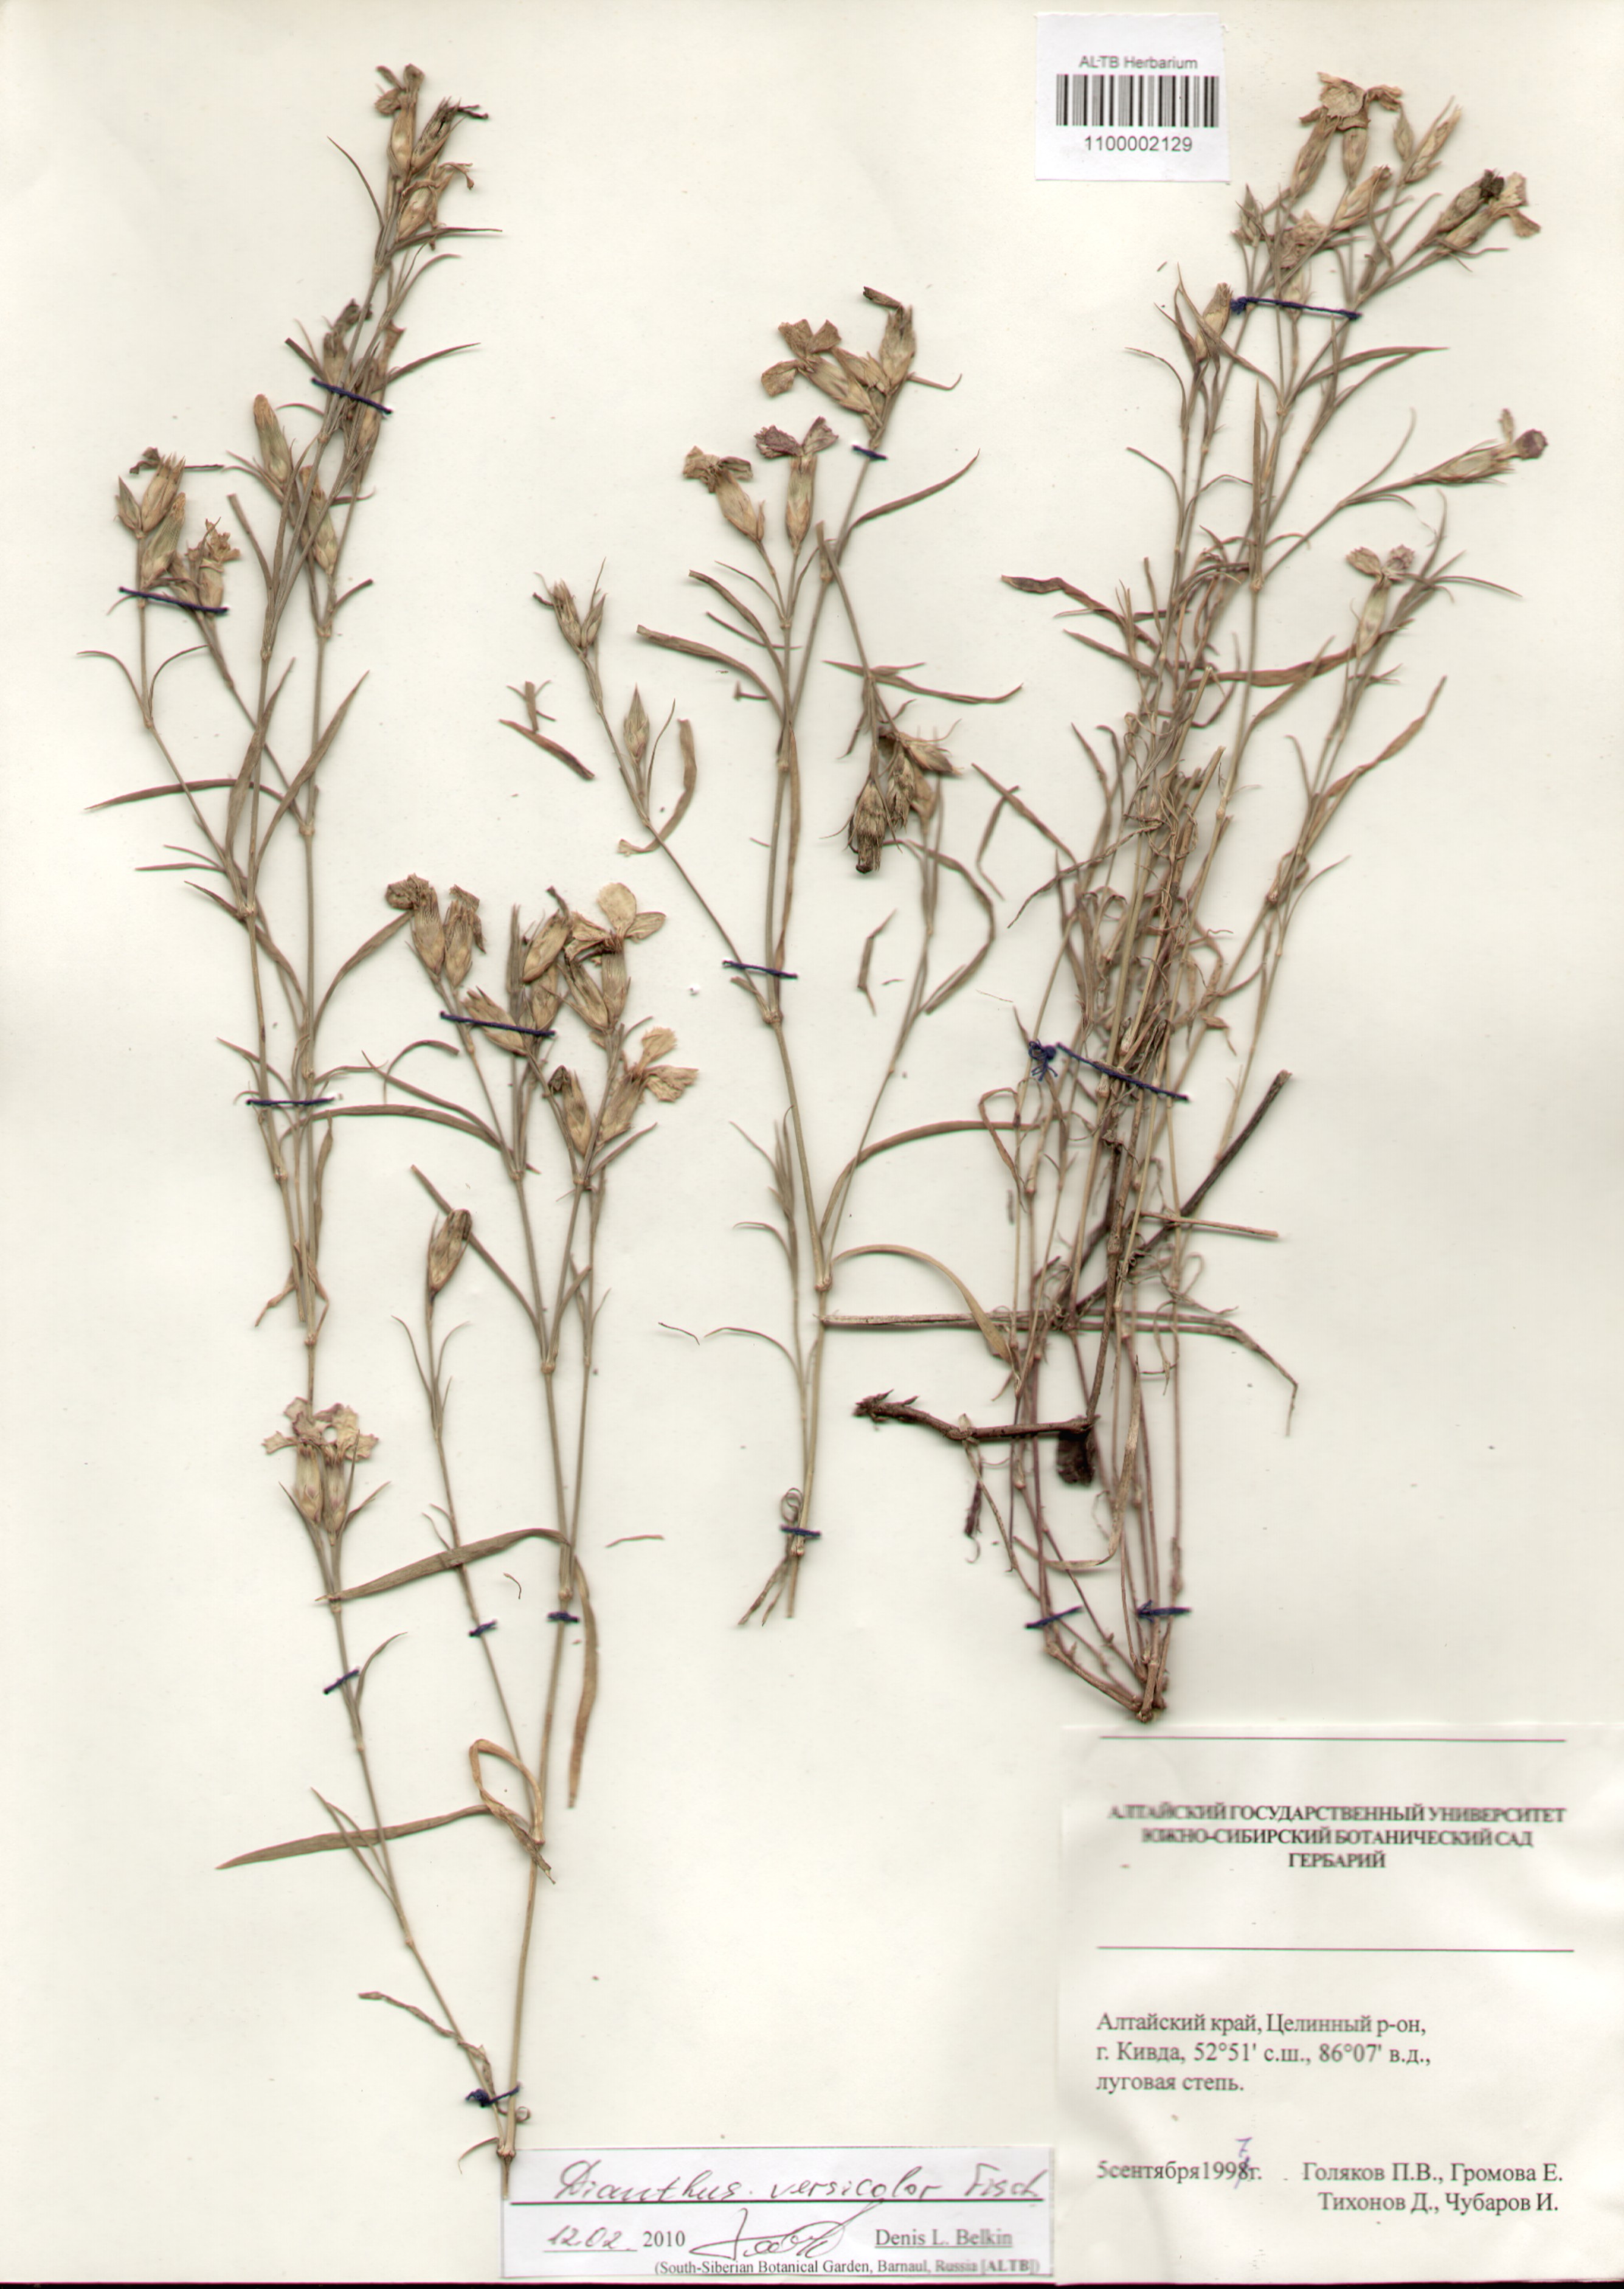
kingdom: Plantae
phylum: Tracheophyta
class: Magnoliopsida
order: Caryophyllales
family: Caryophyllaceae
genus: Dianthus
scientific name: Dianthus chinensis
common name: Rainbow pink
